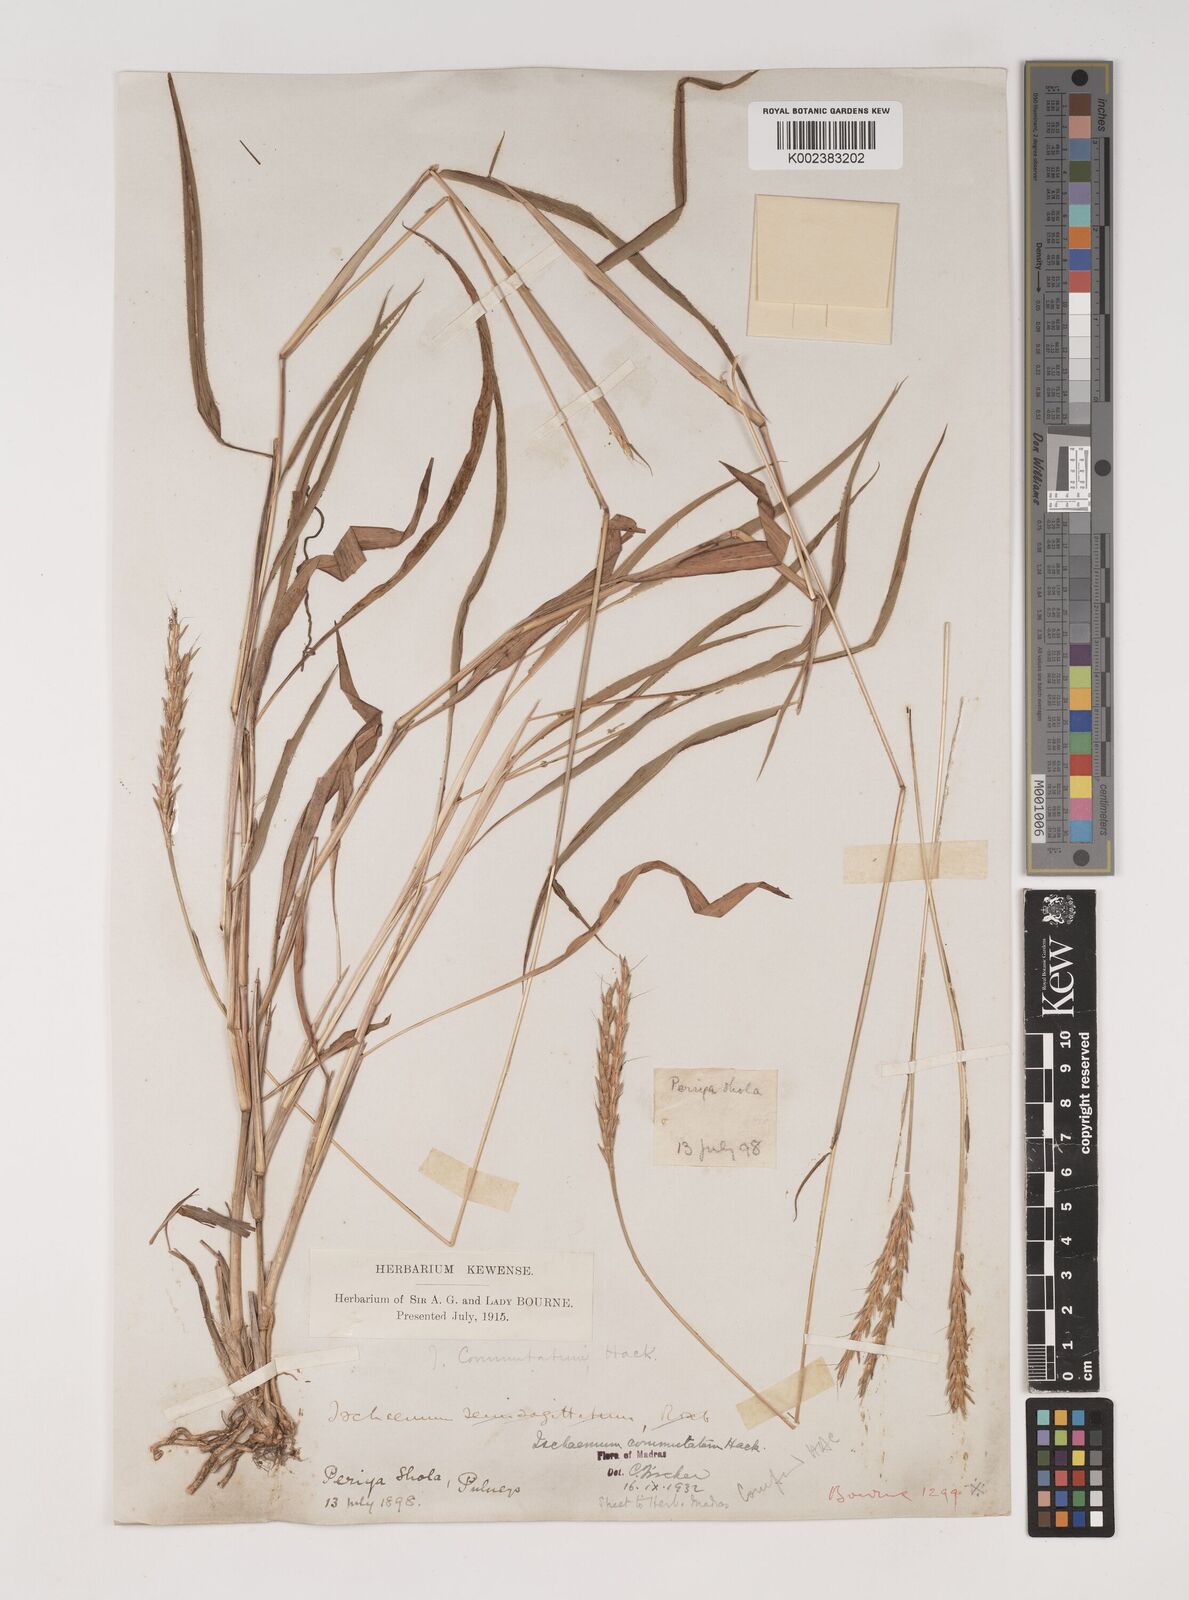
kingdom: Plantae
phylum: Tracheophyta
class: Liliopsida
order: Poales
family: Poaceae
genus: Ischaemum
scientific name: Ischaemum commutatum
